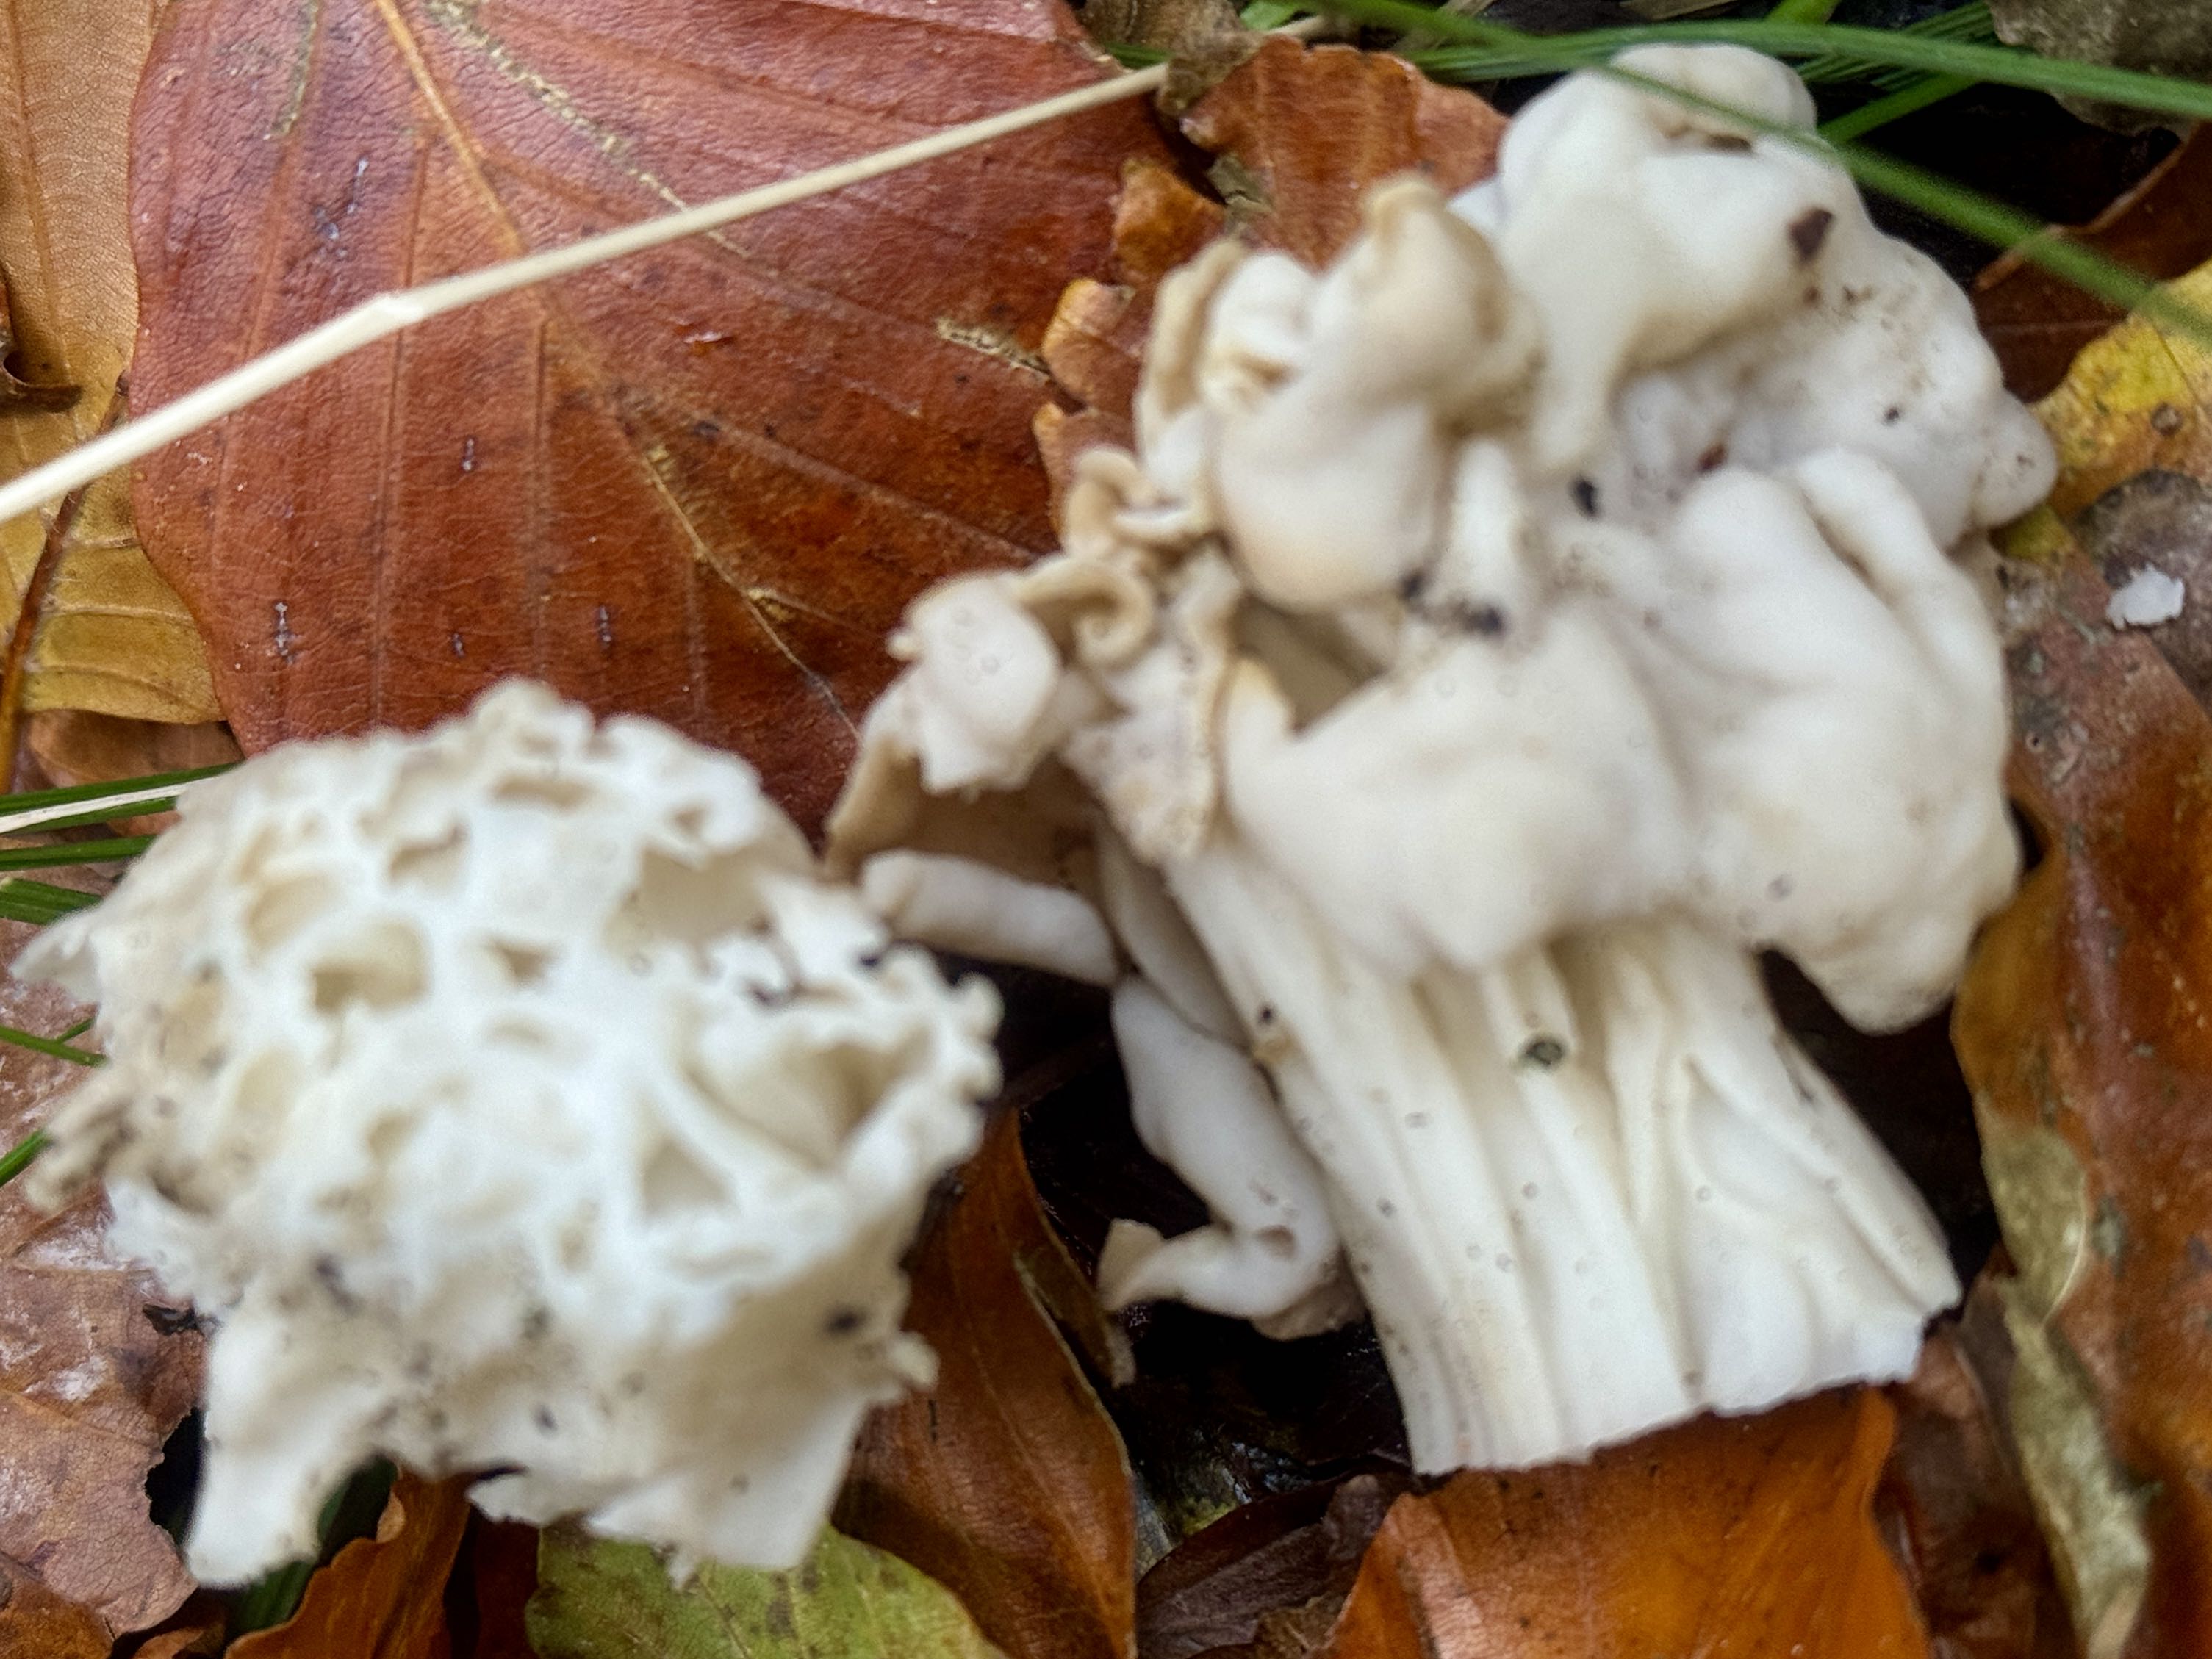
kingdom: Fungi
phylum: Ascomycota
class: Pezizomycetes
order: Pezizales
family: Helvellaceae
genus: Helvella
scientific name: Helvella crispa
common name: kruset foldhat
